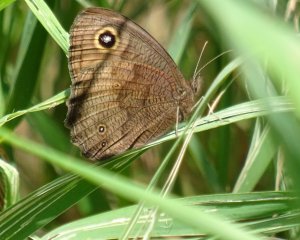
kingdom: Animalia
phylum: Arthropoda
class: Insecta
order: Lepidoptera
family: Nymphalidae
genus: Cercyonis
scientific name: Cercyonis pegala
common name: Common Wood-Nymph
